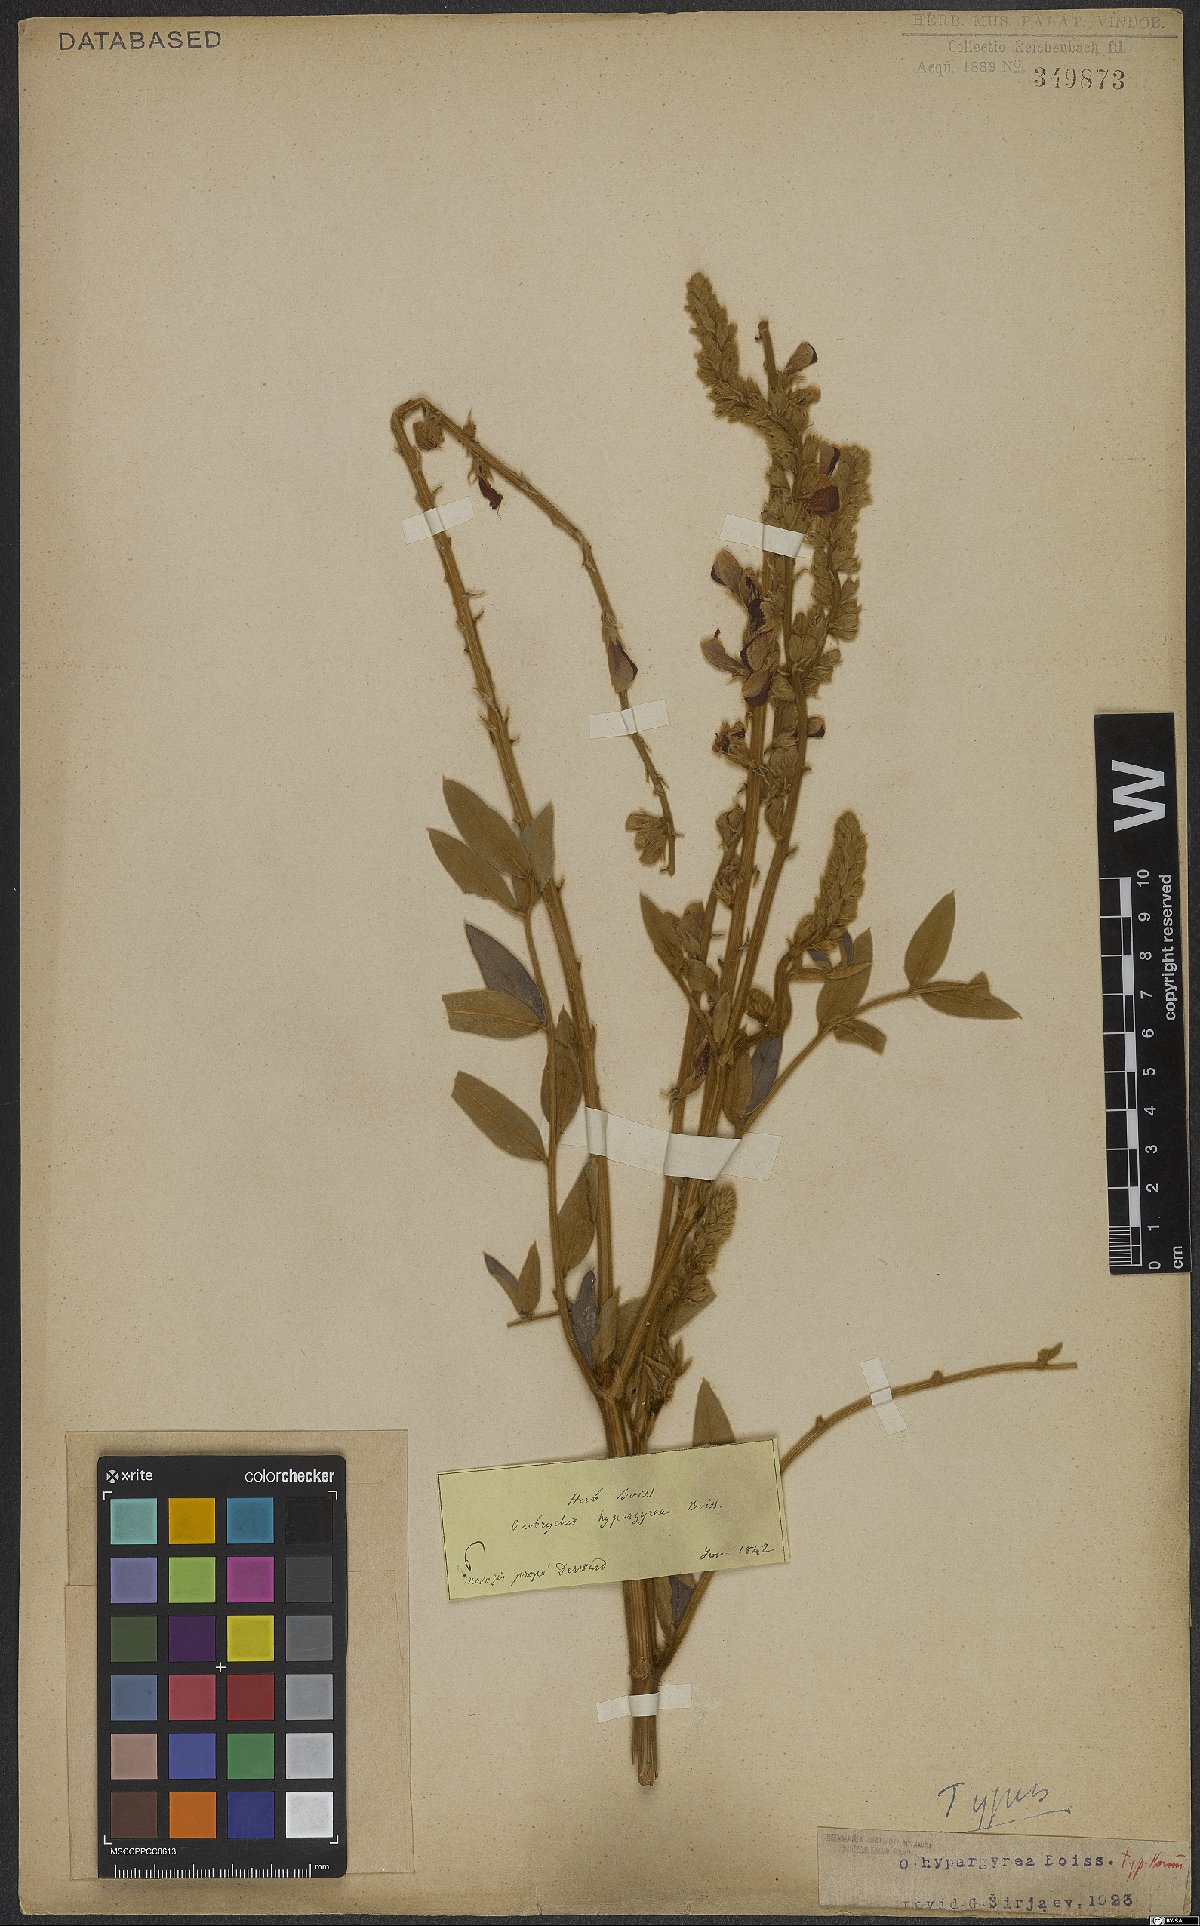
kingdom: Plantae
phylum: Tracheophyta
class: Magnoliopsida
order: Fabales
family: Fabaceae
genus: Onobrychis
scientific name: Onobrychis hypargyrea
